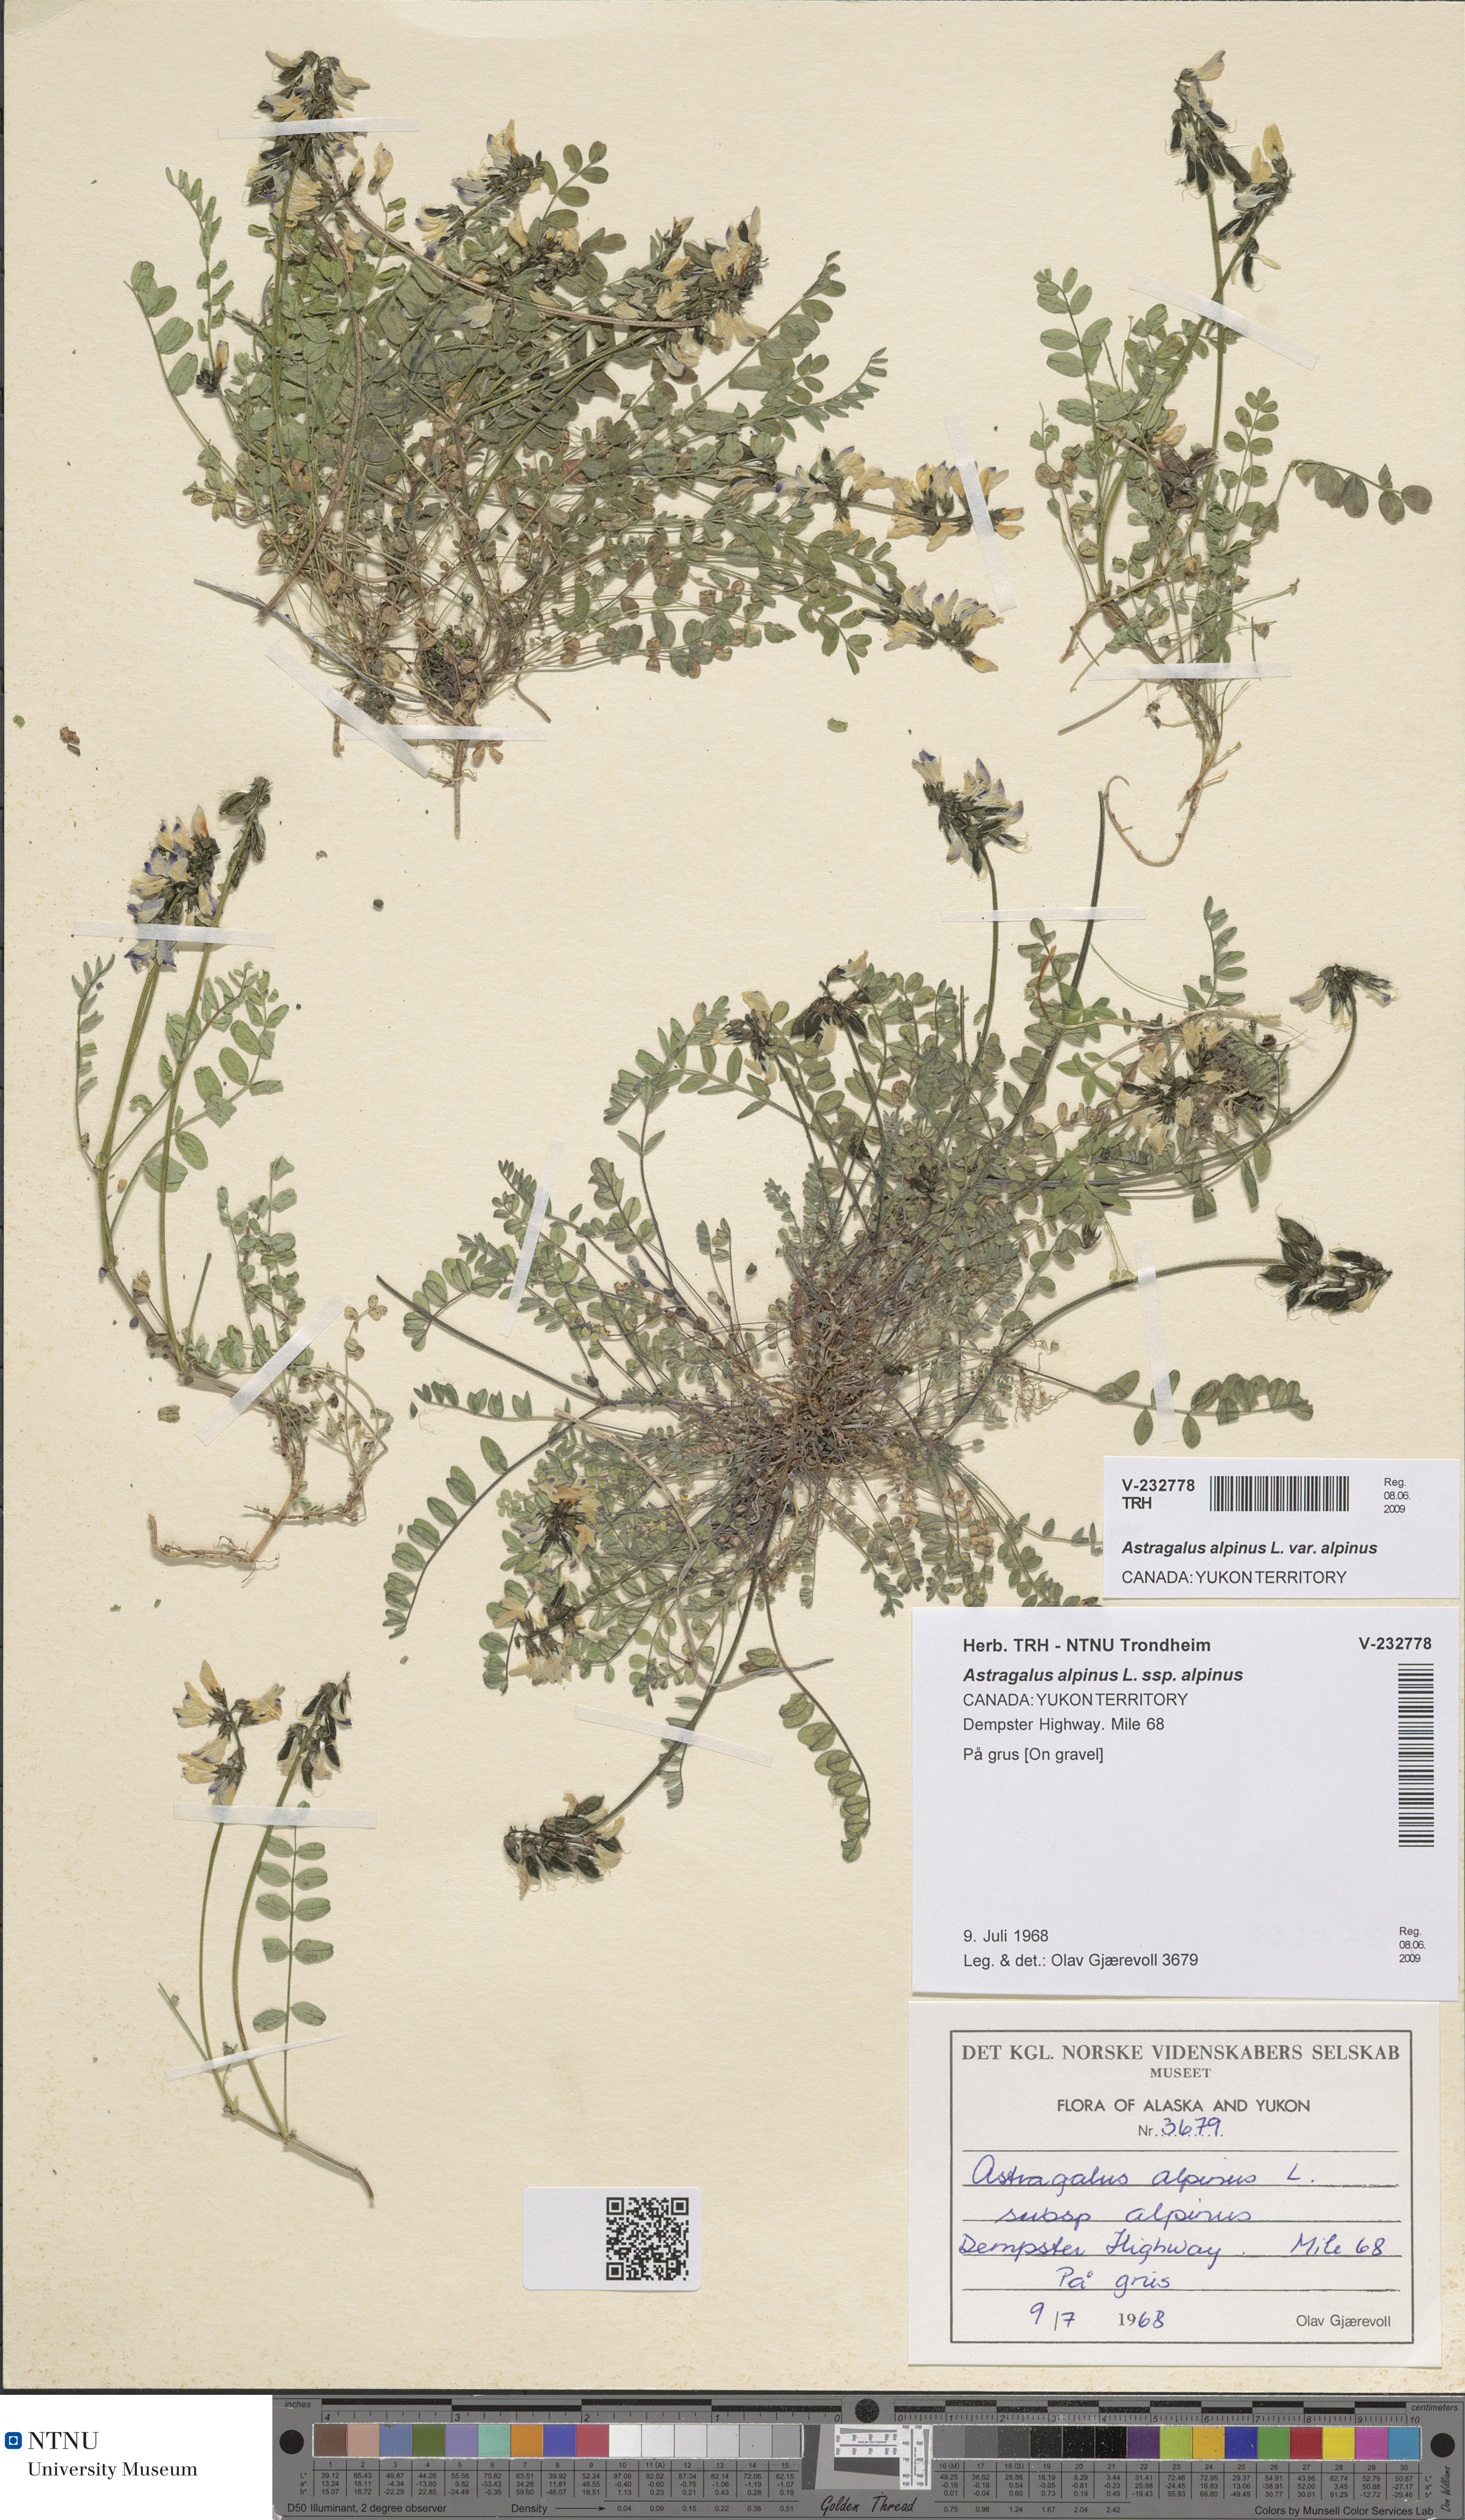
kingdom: Plantae
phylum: Tracheophyta
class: Magnoliopsida
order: Fabales
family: Fabaceae
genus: Astragalus
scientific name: Astragalus alpinus
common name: Alpine milk-vetch
